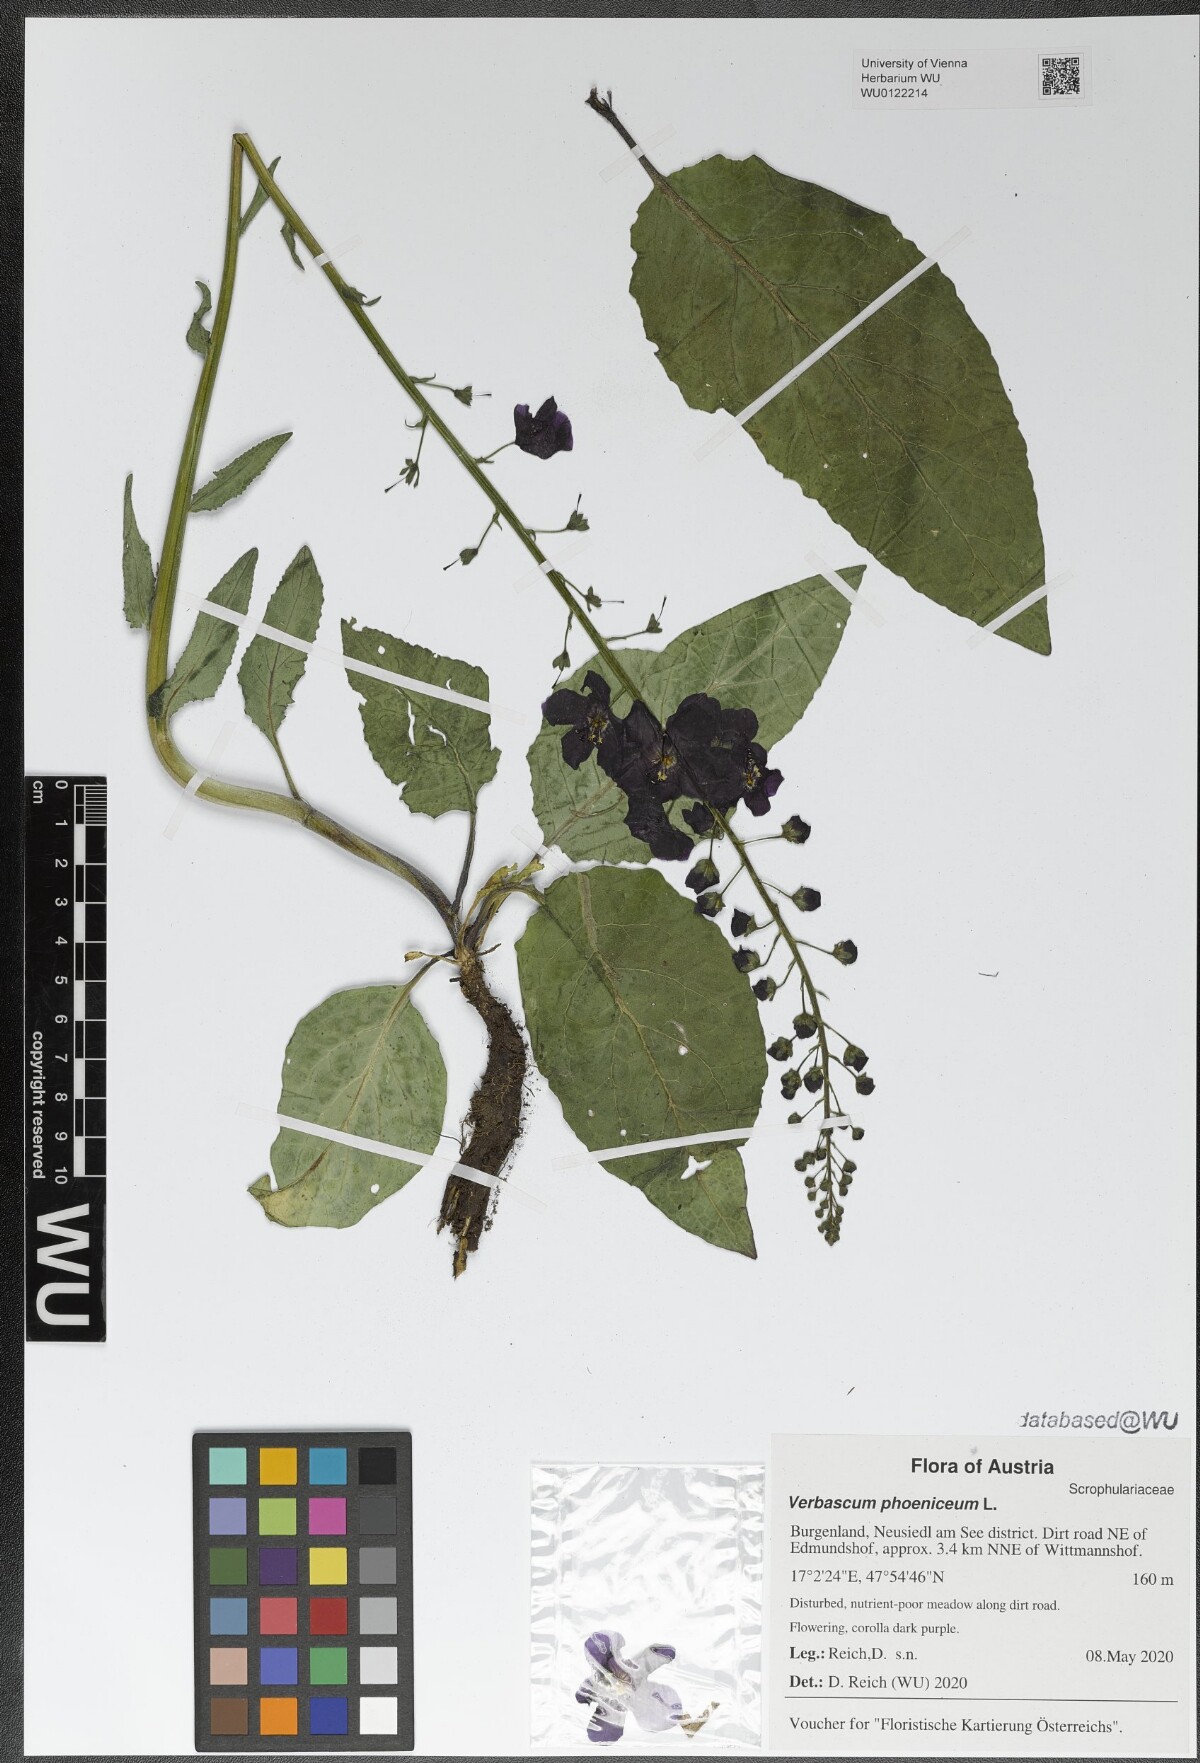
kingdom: Plantae
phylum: Tracheophyta
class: Magnoliopsida
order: Lamiales
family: Scrophulariaceae
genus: Verbascum
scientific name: Verbascum phoeniceum
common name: Purple mullein
